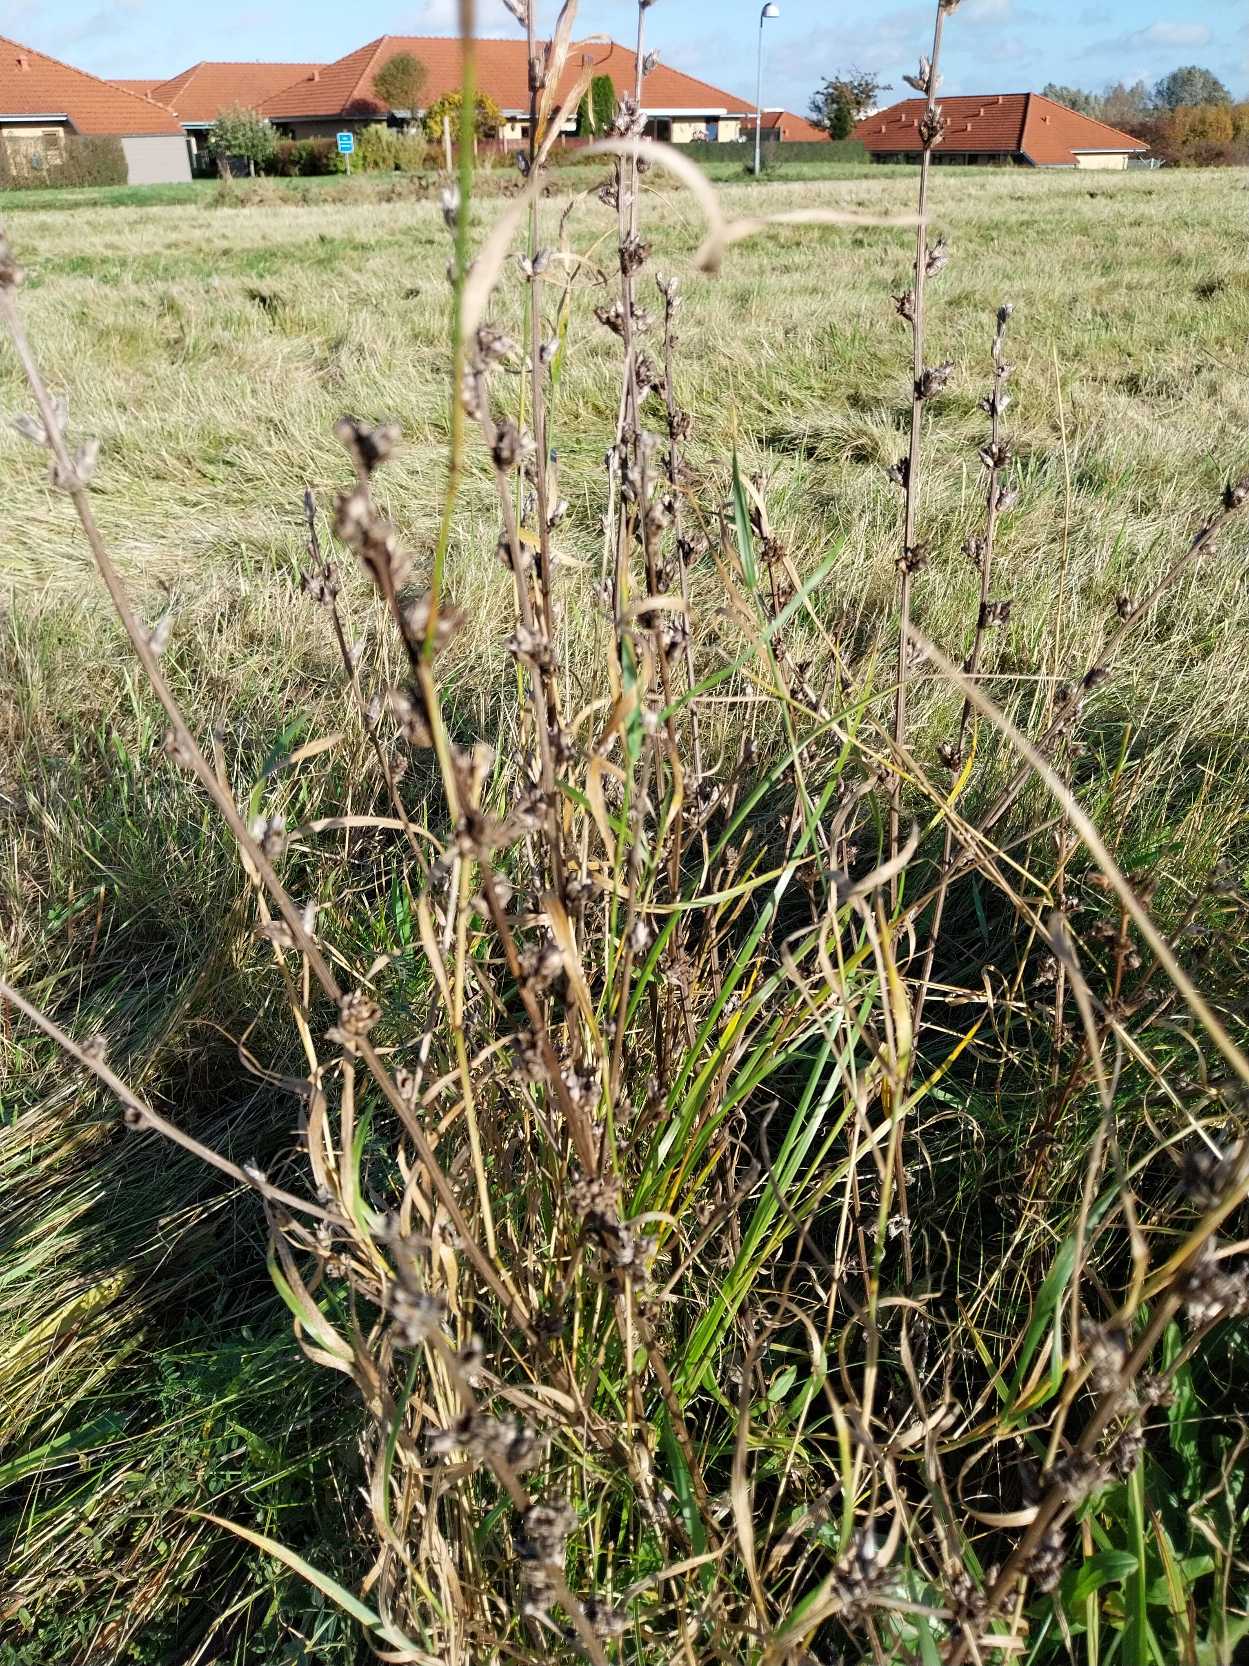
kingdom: Plantae
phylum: Tracheophyta
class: Magnoliopsida
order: Asterales
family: Asteraceae
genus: Cichorium
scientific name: Cichorium intybus
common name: Cikorie
